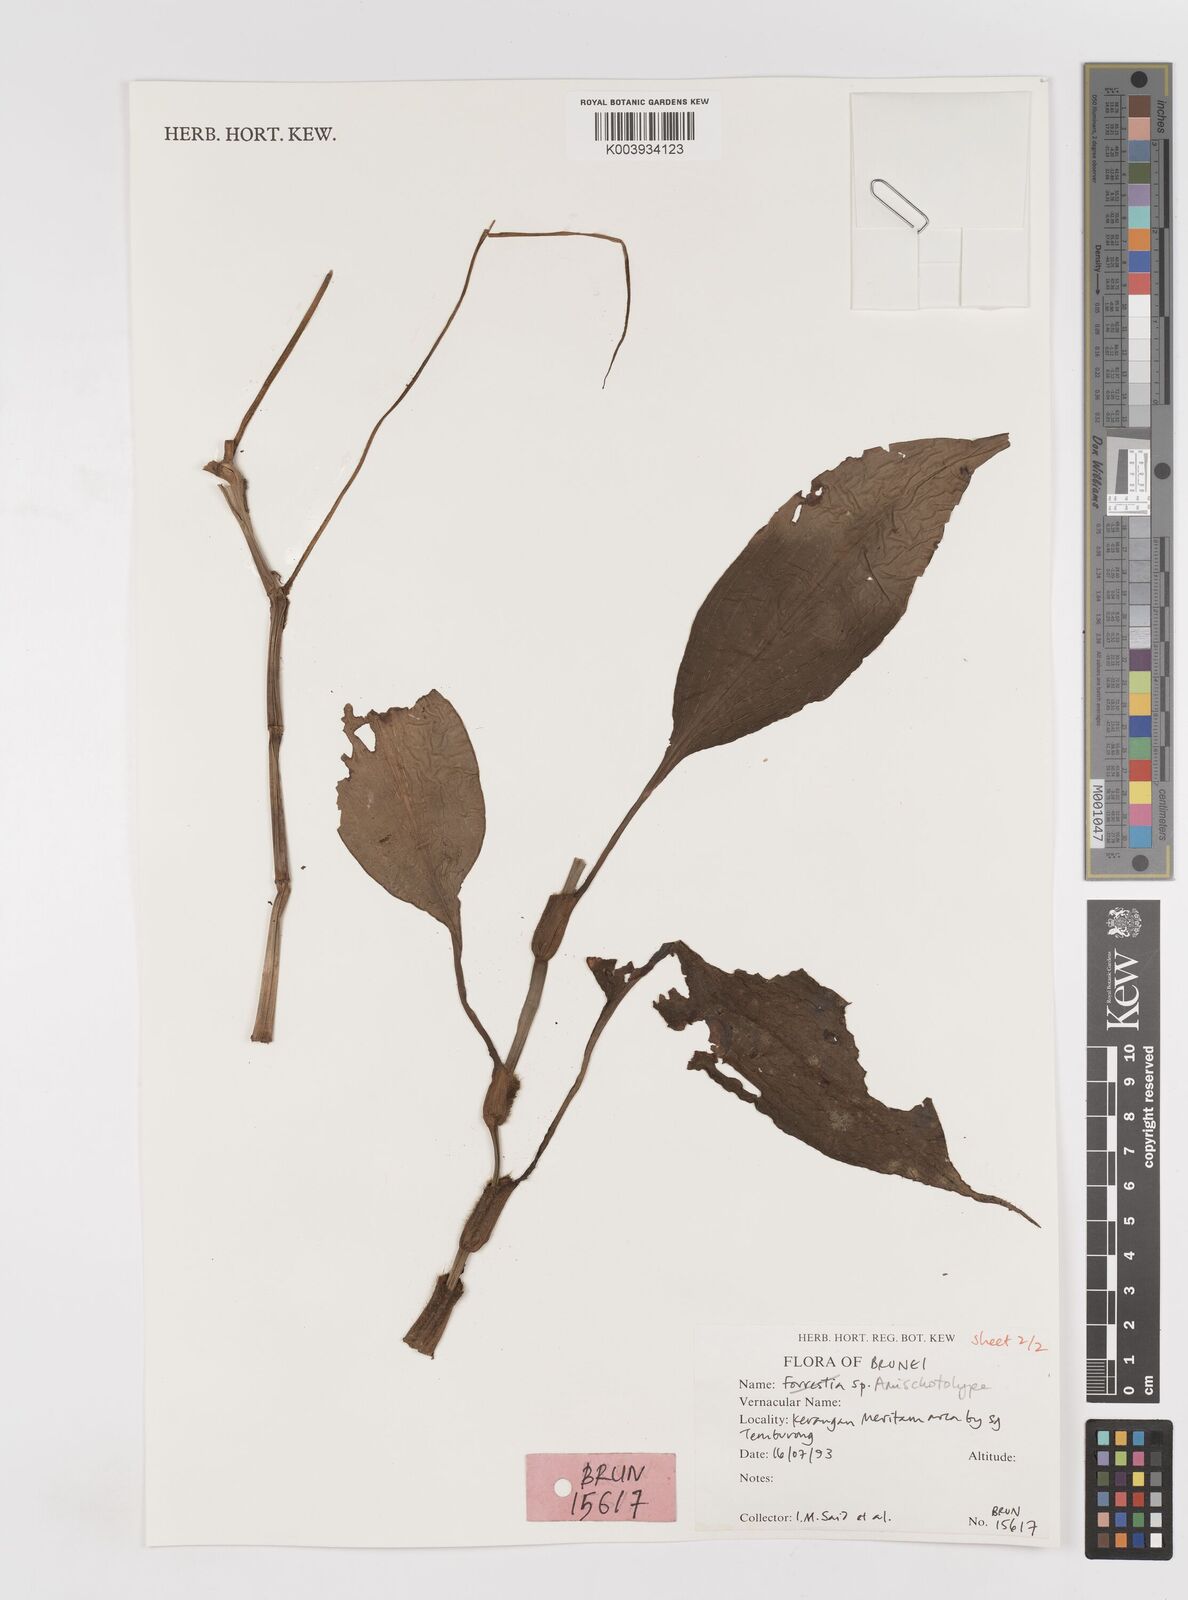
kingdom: Plantae
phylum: Tracheophyta
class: Liliopsida
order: Commelinales
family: Commelinaceae
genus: Amischotolype
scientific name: Amischotolype
